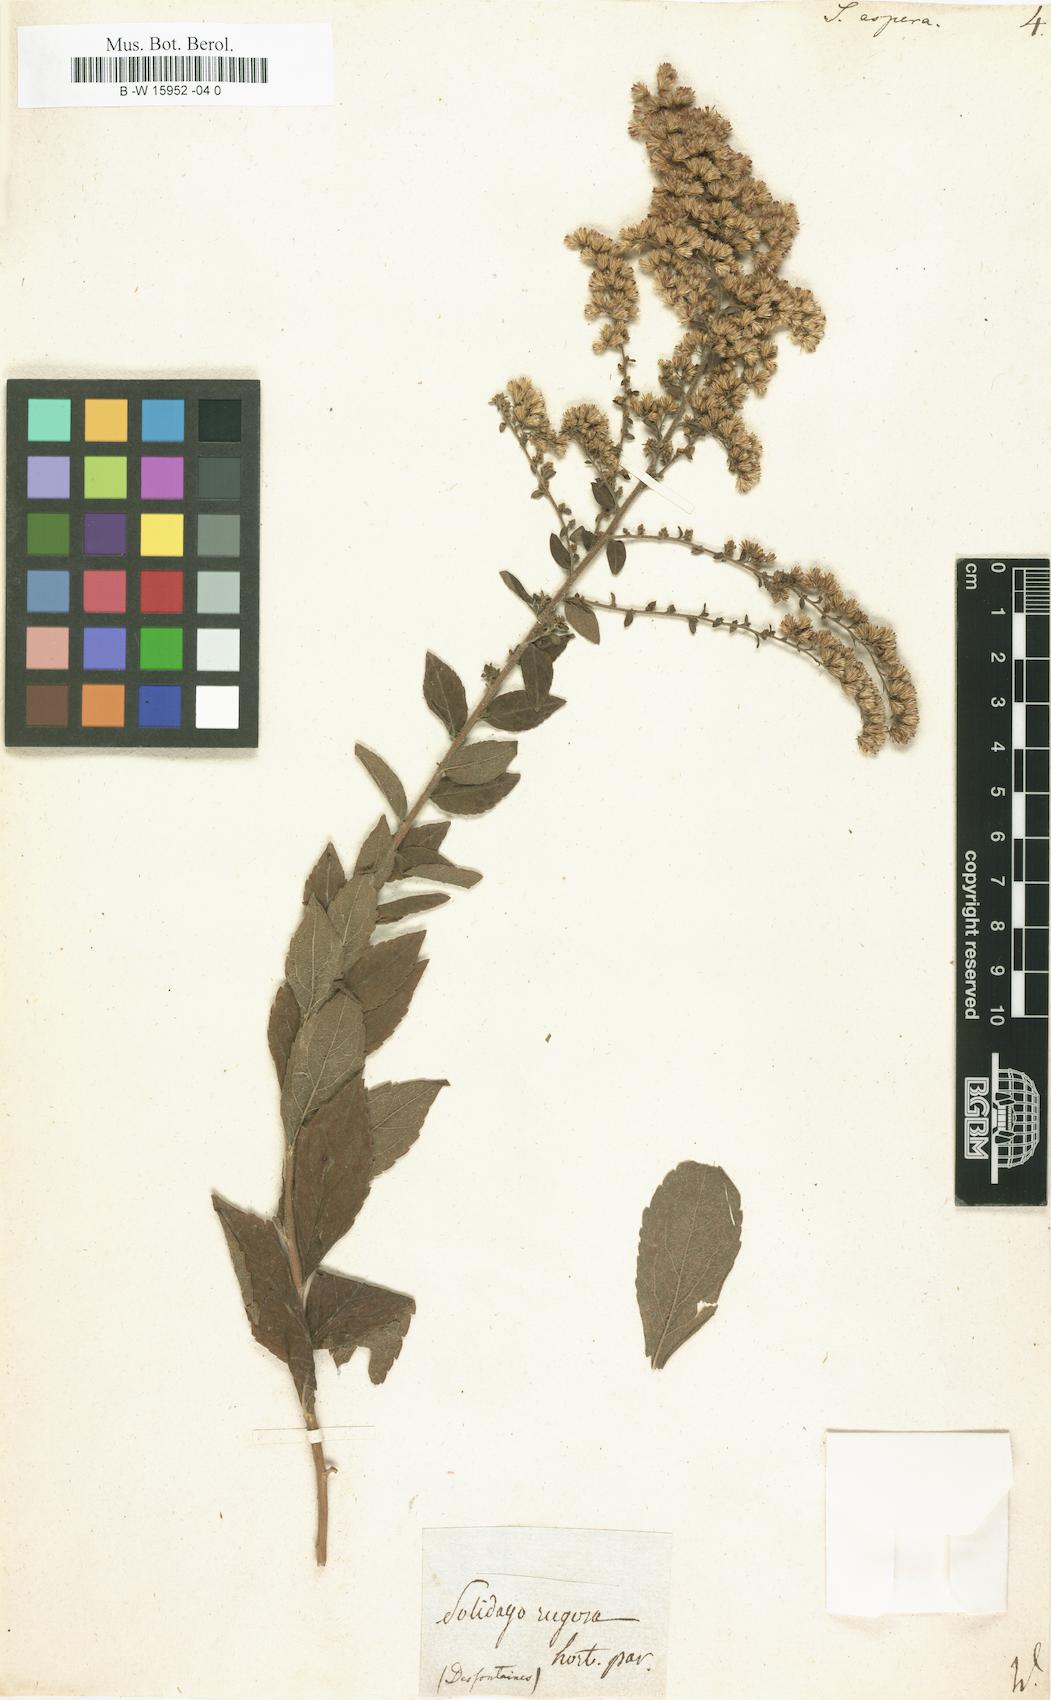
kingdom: Plantae
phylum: Tracheophyta
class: Magnoliopsida
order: Asterales
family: Asteraceae
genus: Solidago
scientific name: Solidago rugosa
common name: Rough-stemmed goldenrod
